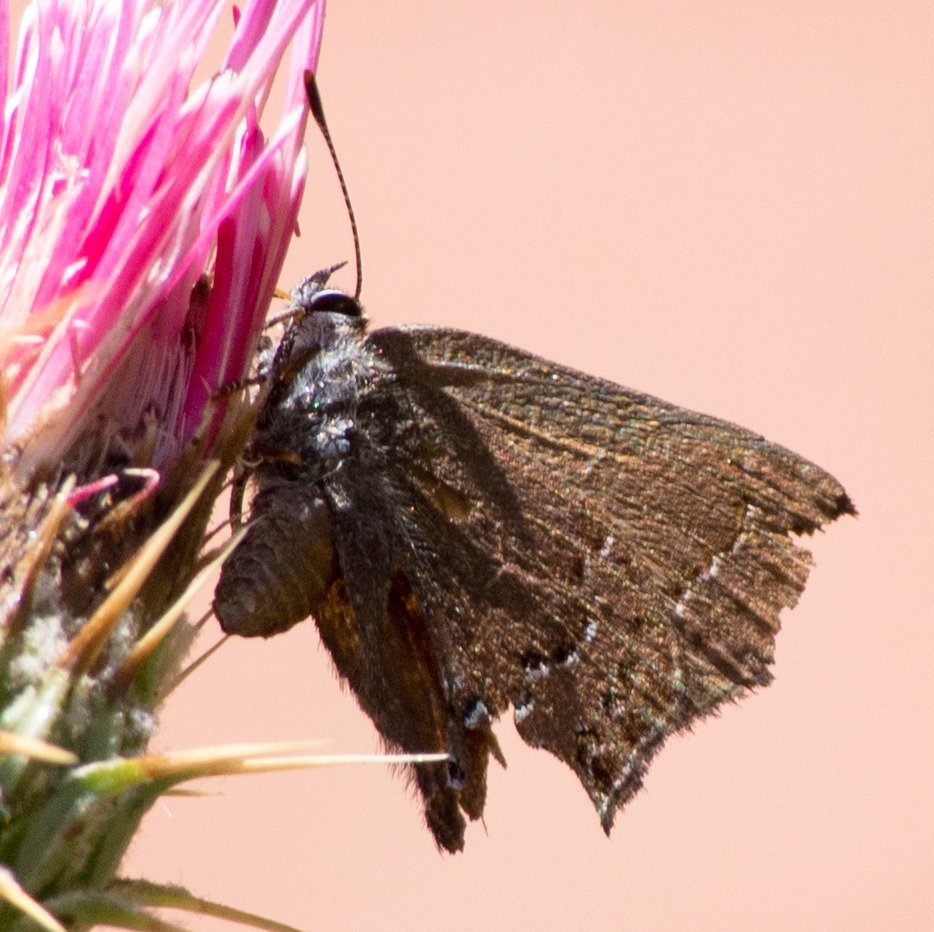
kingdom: Animalia
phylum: Arthropoda
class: Insecta
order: Lepidoptera
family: Lycaenidae
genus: Strymon
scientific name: Strymon saepium
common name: Hedgerow Hairstreak
